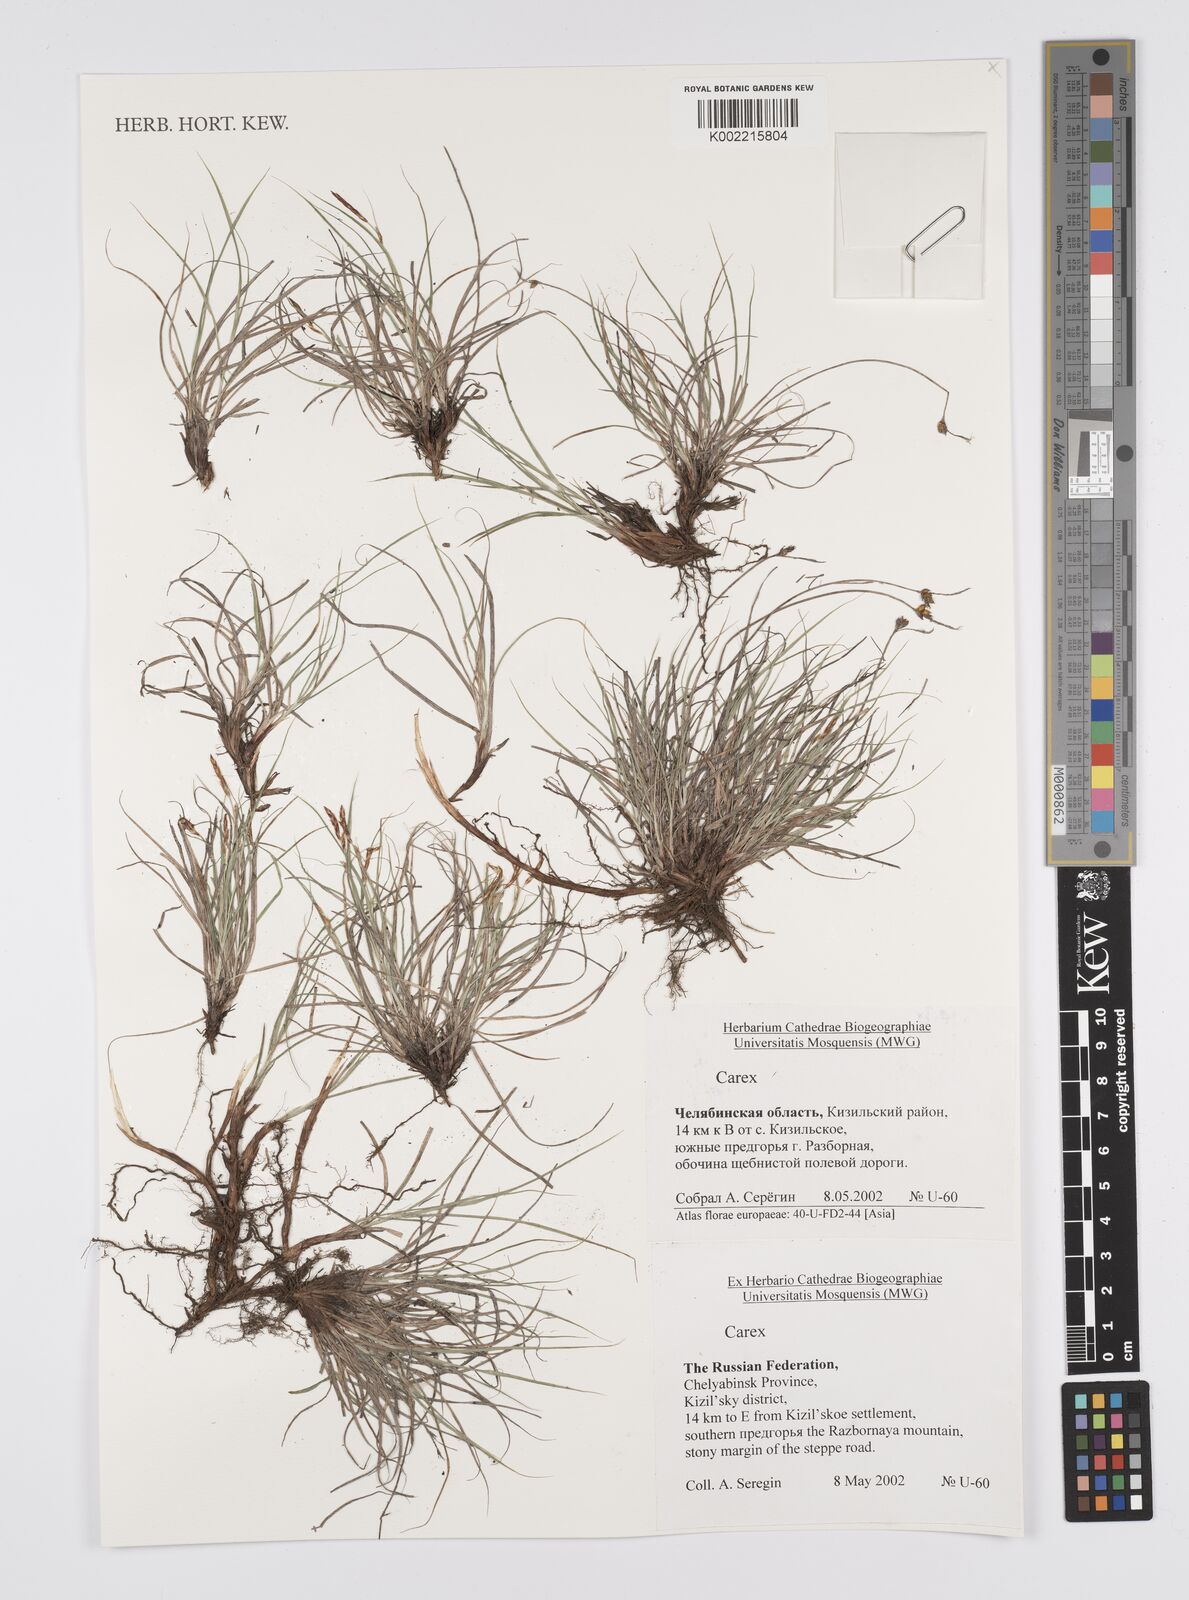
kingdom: Plantae
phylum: Tracheophyta
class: Liliopsida
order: Poales
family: Cyperaceae
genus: Carex
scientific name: Carex
